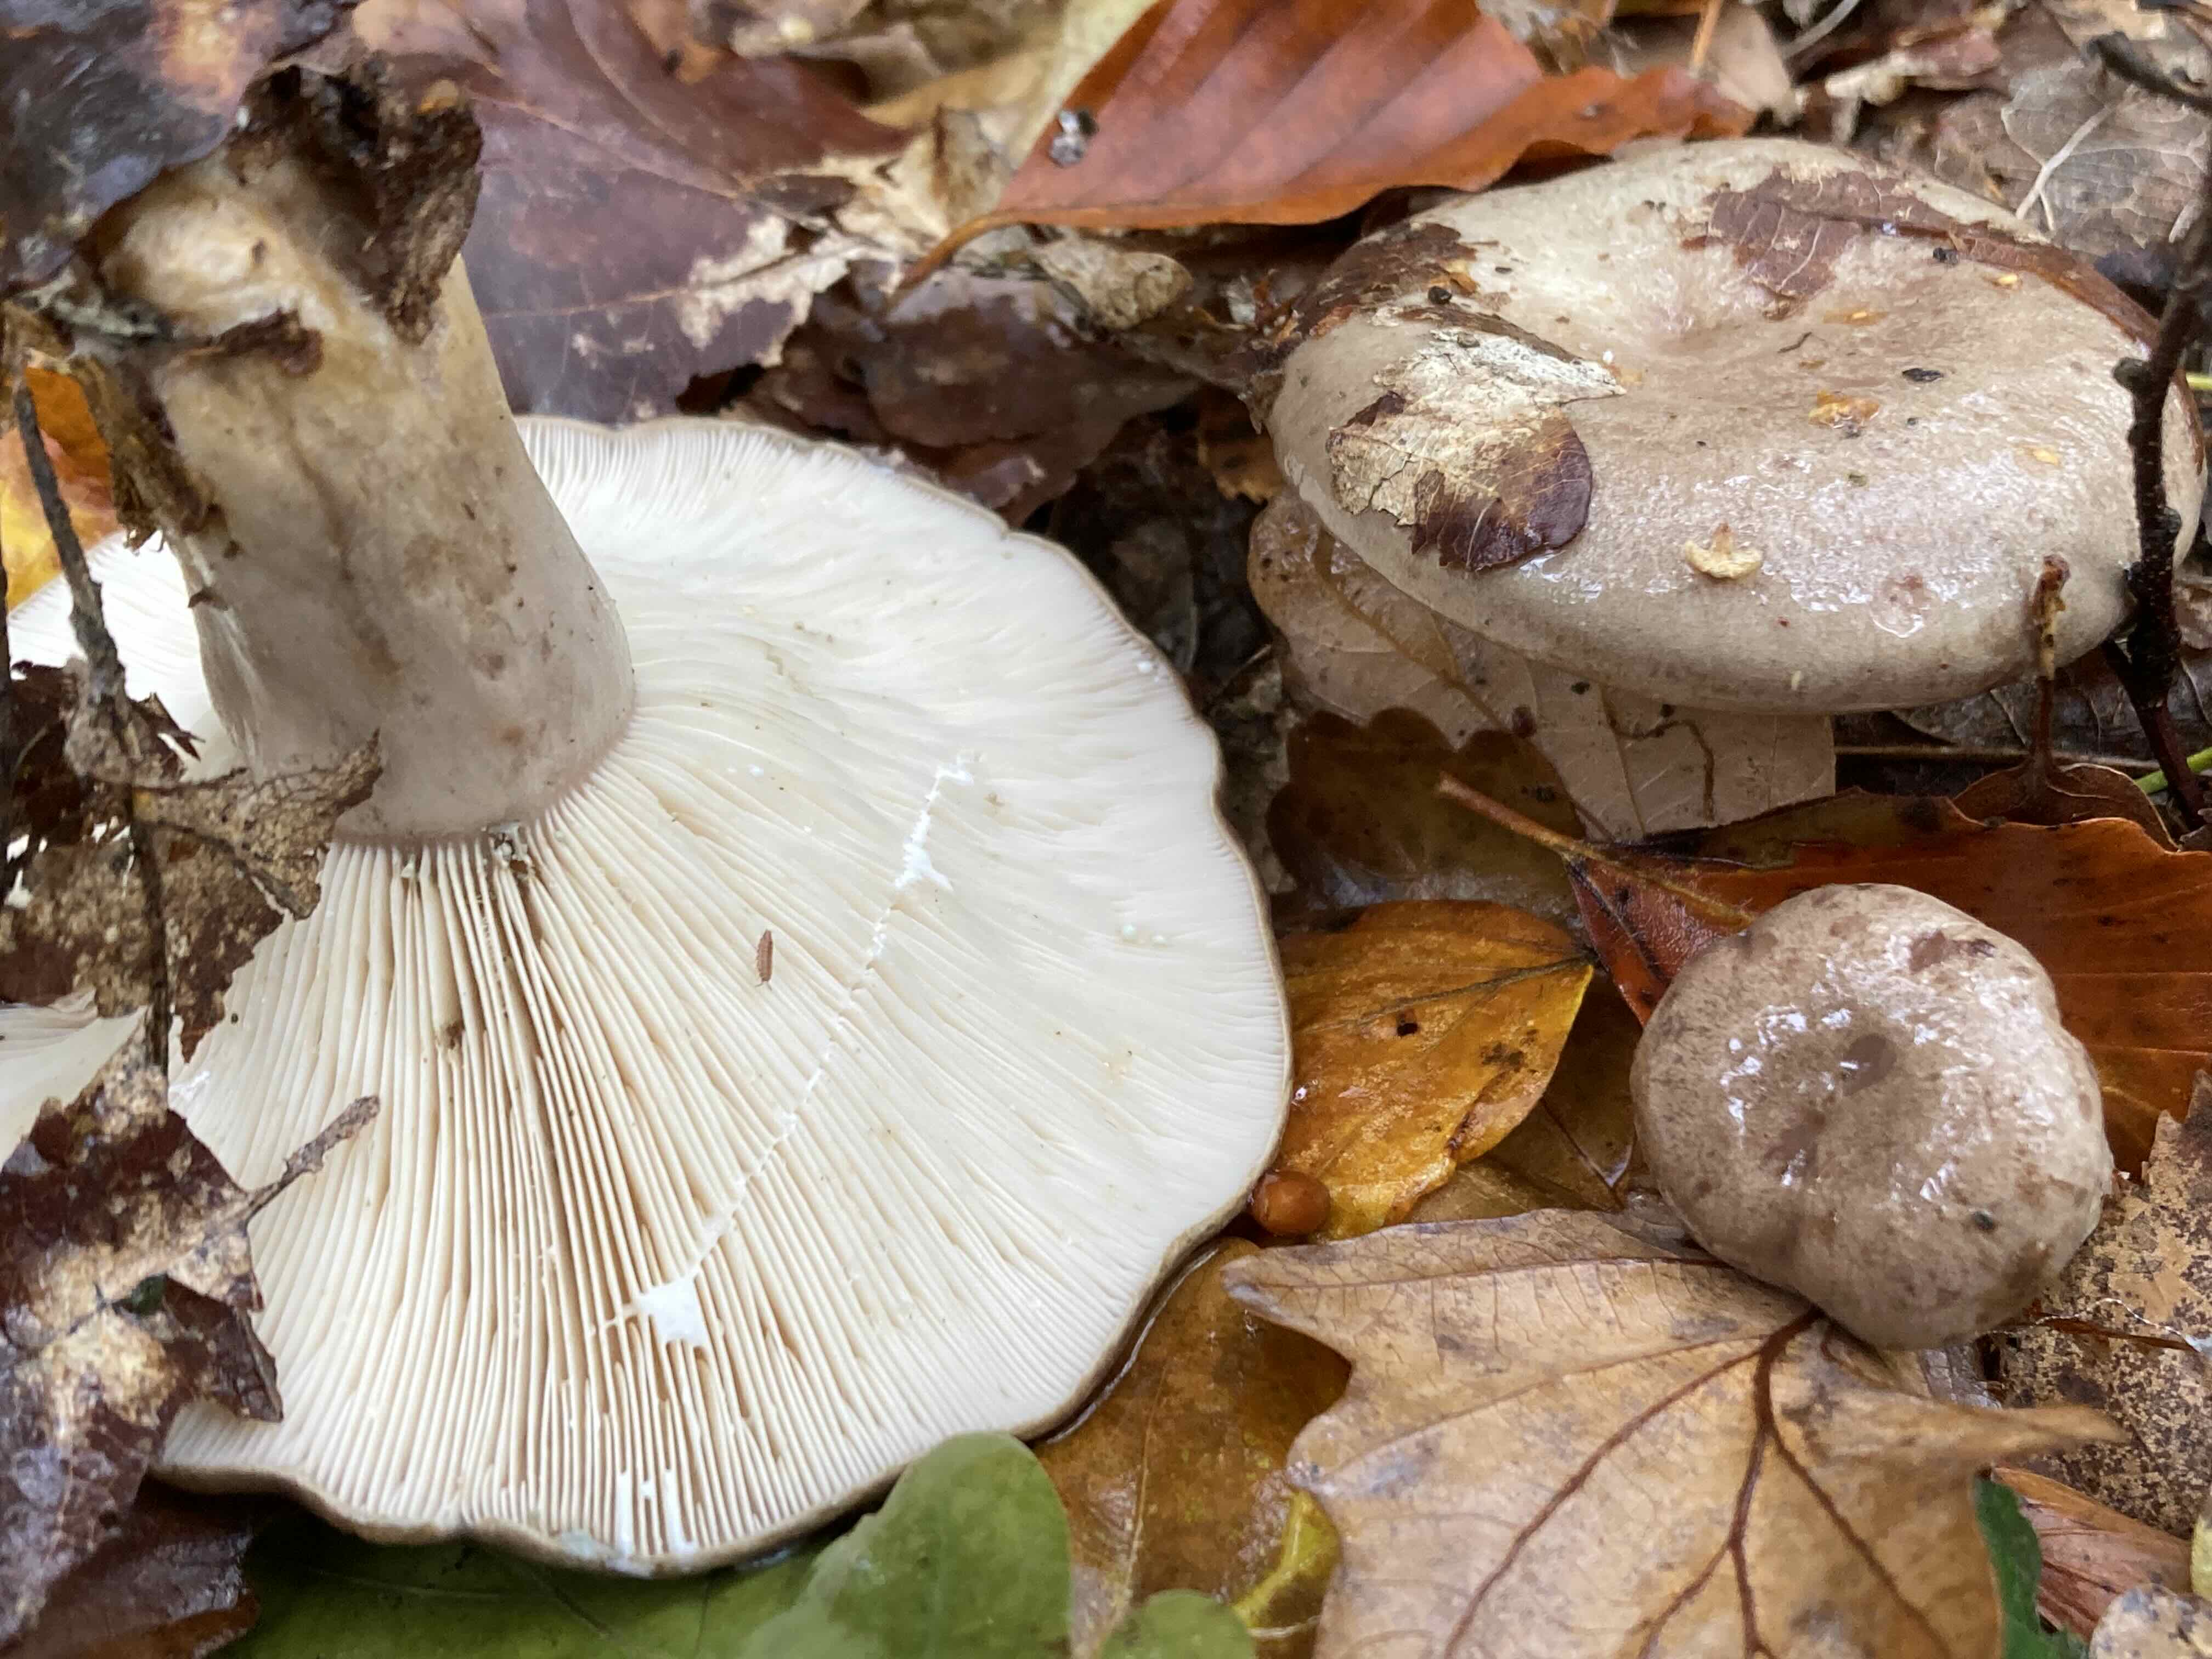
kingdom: Fungi
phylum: Basidiomycota
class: Agaricomycetes
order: Russulales
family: Russulaceae
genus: Lactarius
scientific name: Lactarius blennius
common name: dråbeplettet mælkehat
